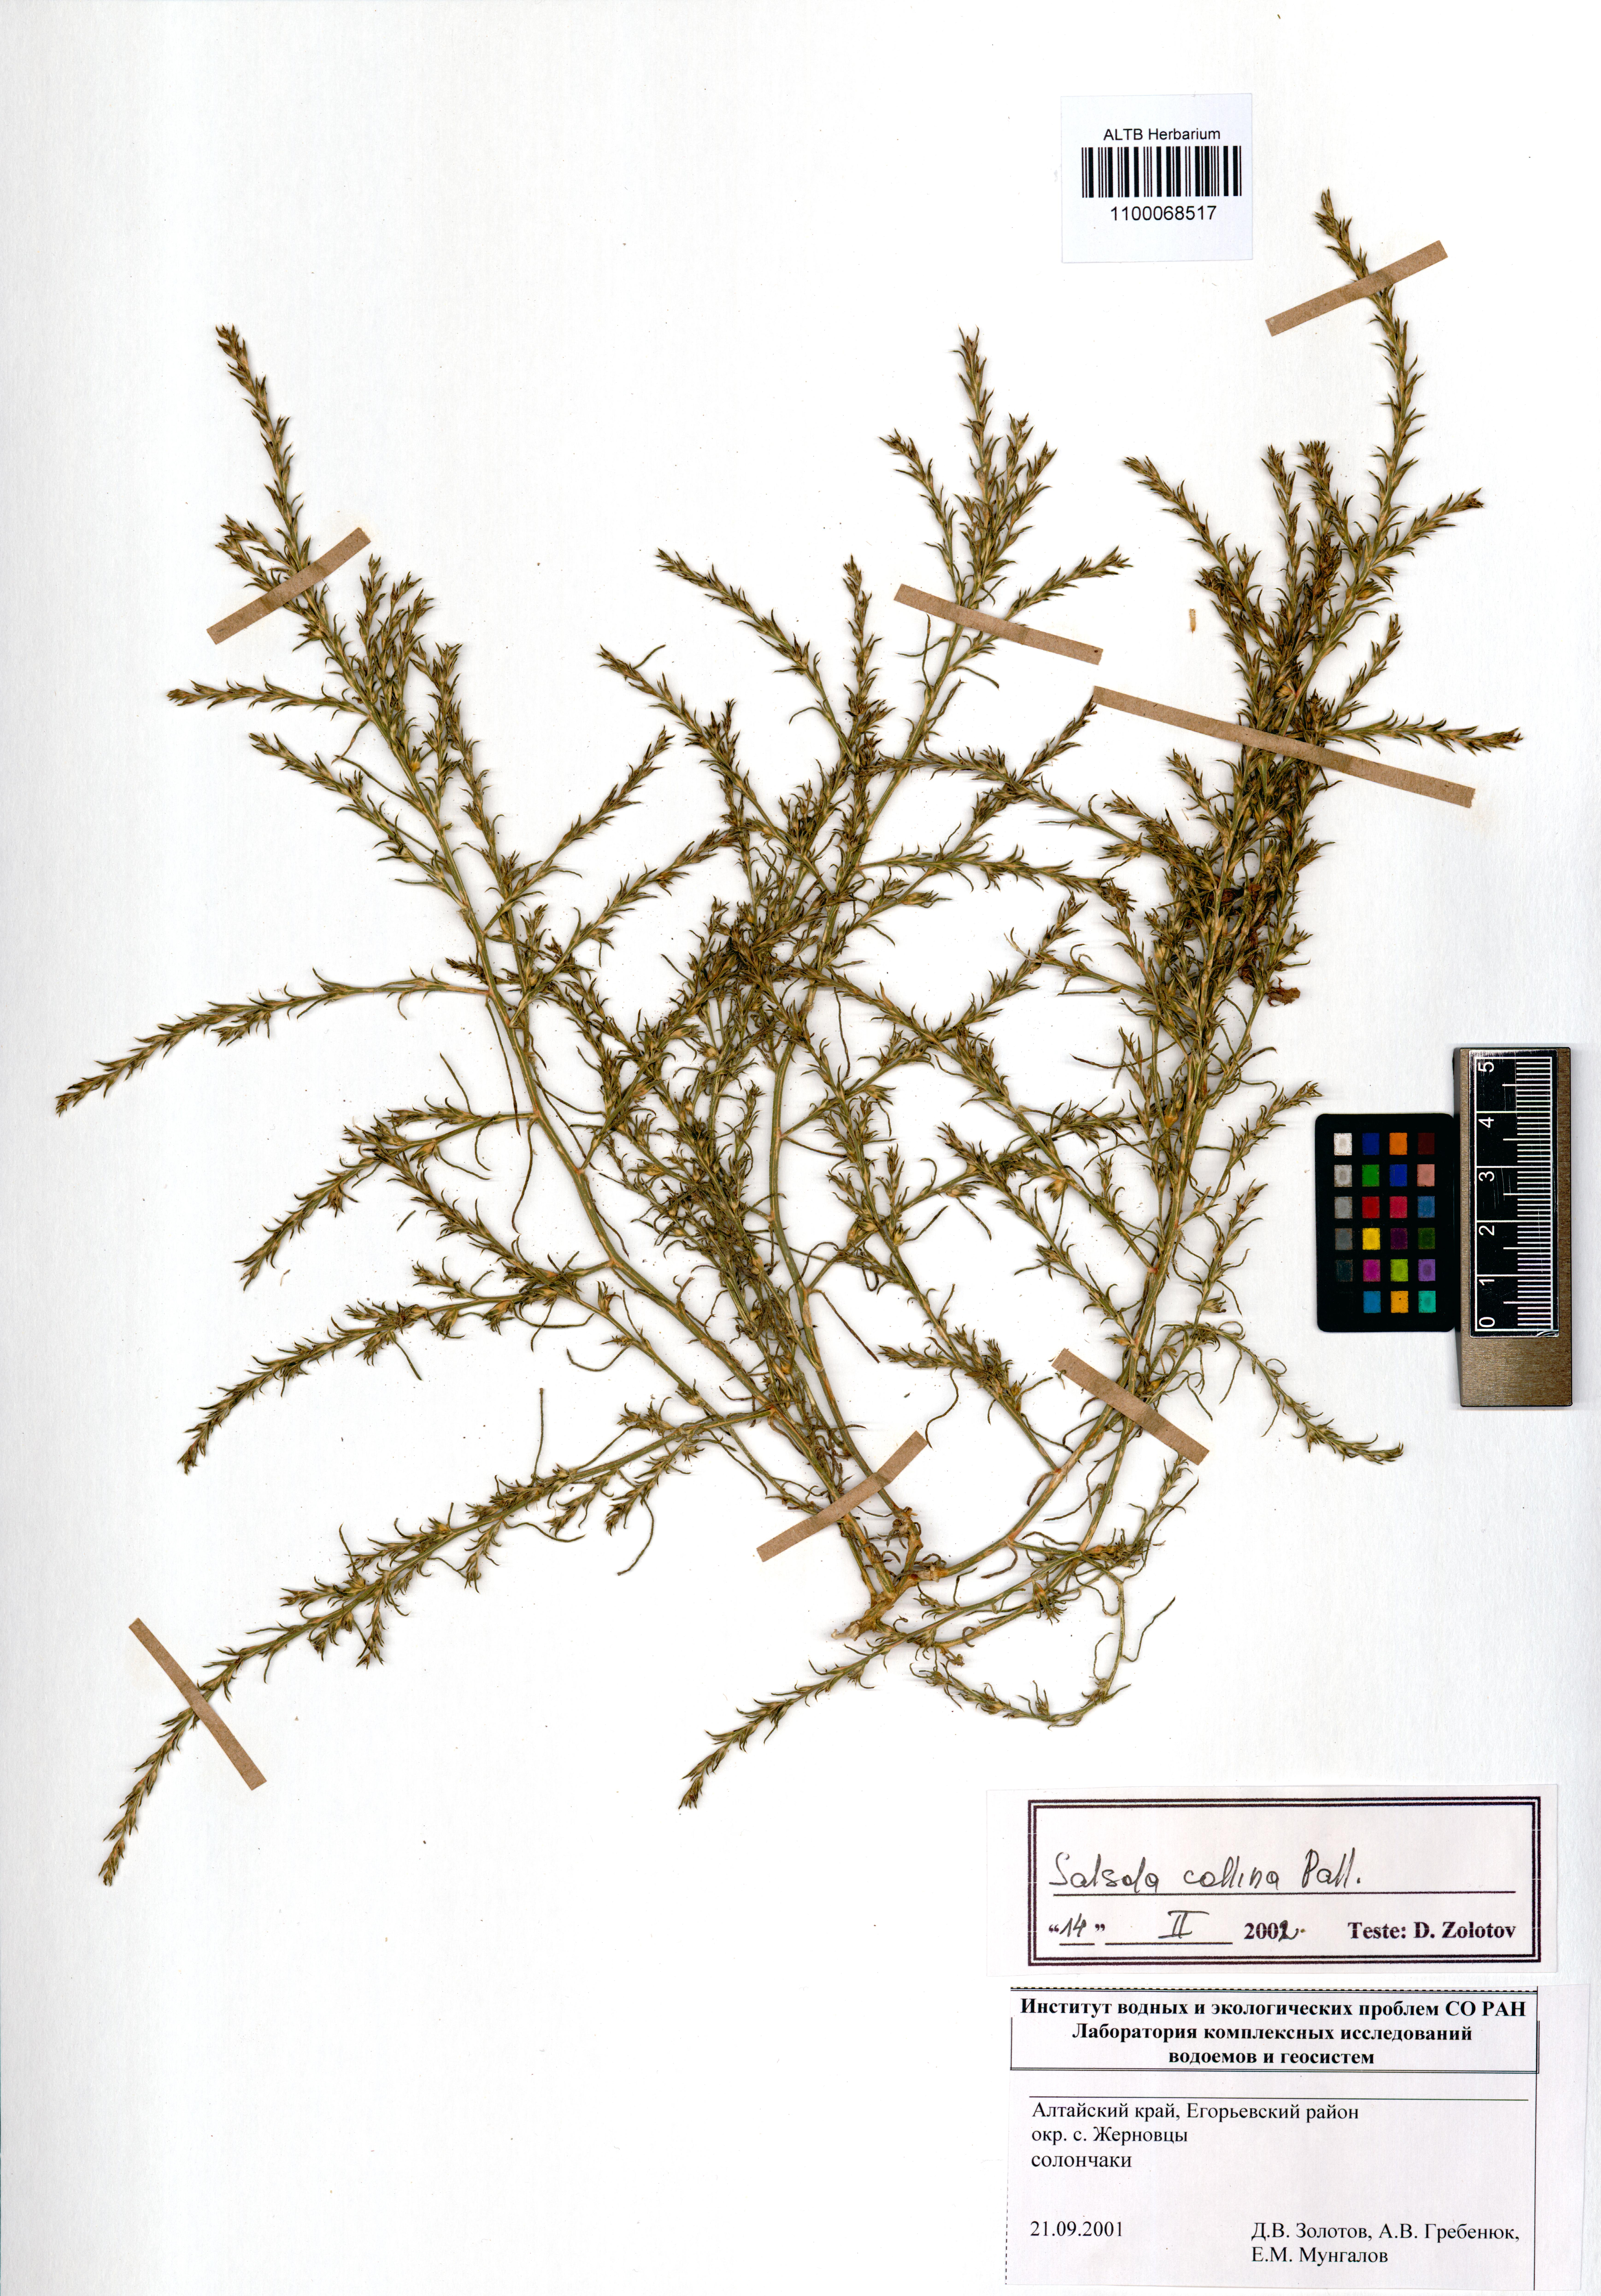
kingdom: Plantae
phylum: Tracheophyta
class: Magnoliopsida
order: Caryophyllales
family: Amaranthaceae
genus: Salsola
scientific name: Salsola collina
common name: Tumbleweed
